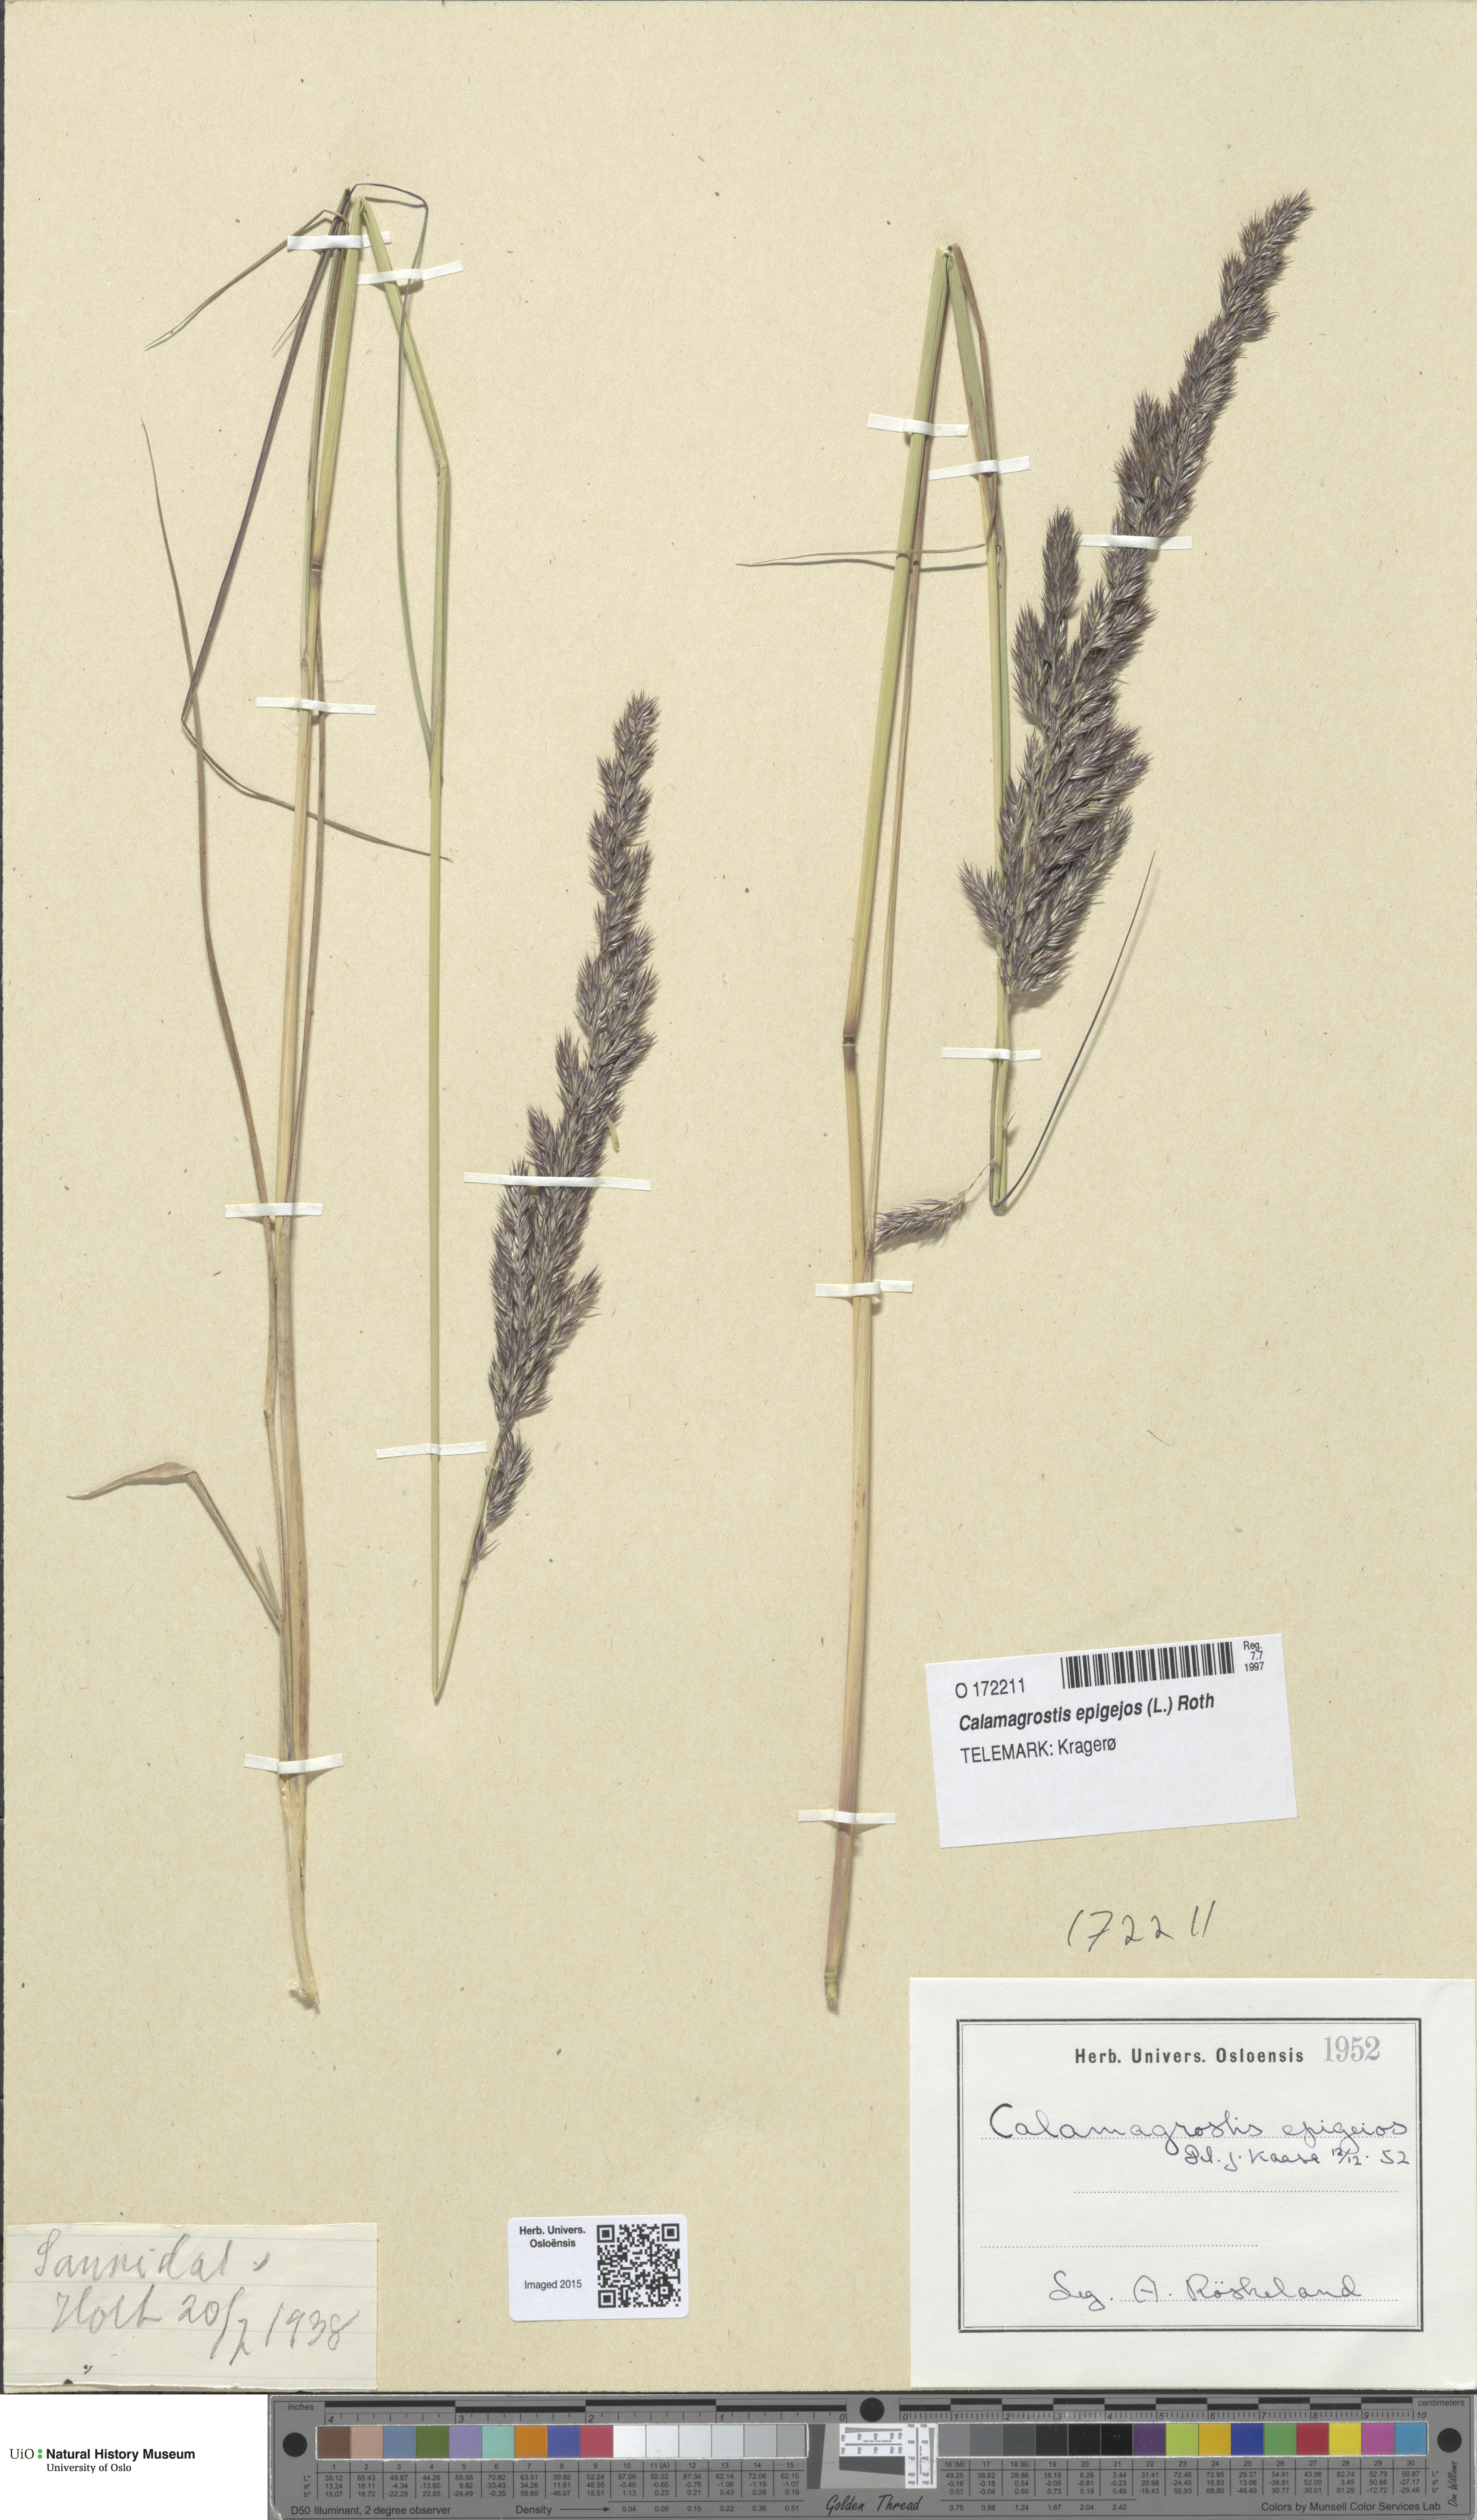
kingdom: Plantae
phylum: Tracheophyta
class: Liliopsida
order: Poales
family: Poaceae
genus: Calamagrostis
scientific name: Calamagrostis epigejos
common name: Wood small-reed
